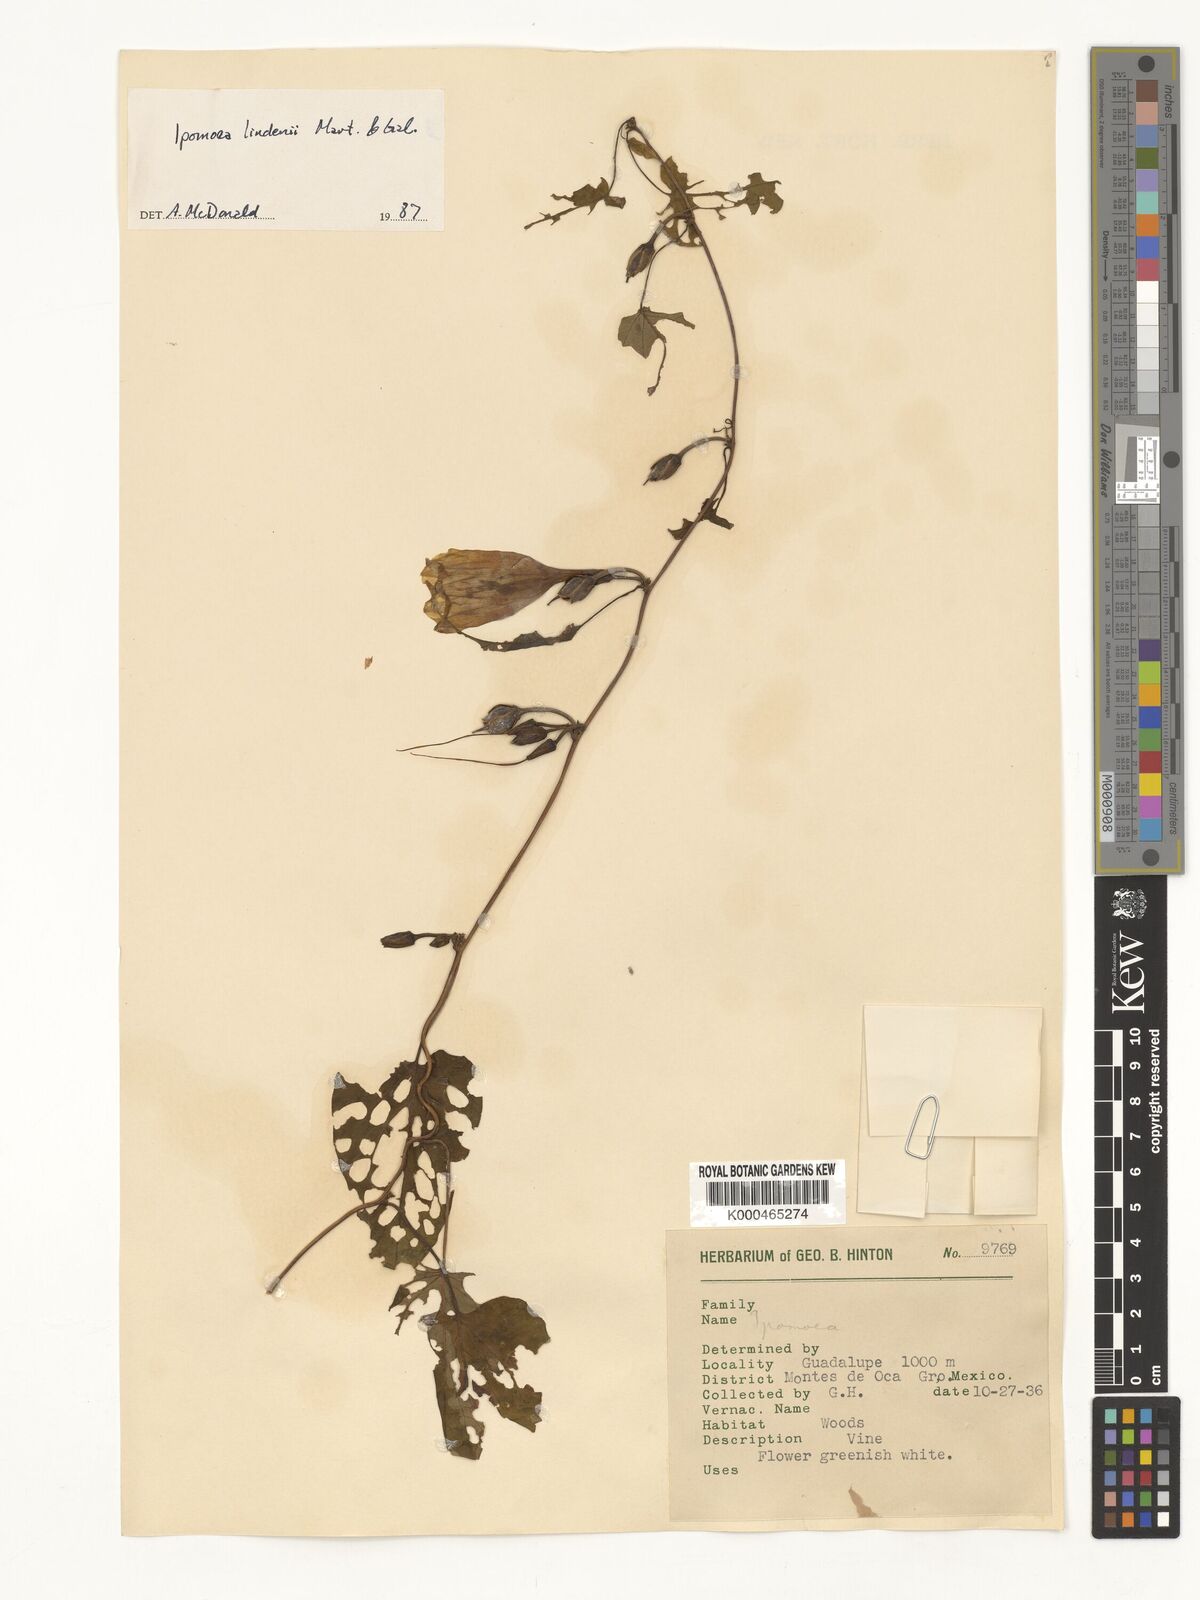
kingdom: Plantae
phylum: Tracheophyta
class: Magnoliopsida
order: Solanales
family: Convolvulaceae
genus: Ipomoea
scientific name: Ipomoea lindenii
